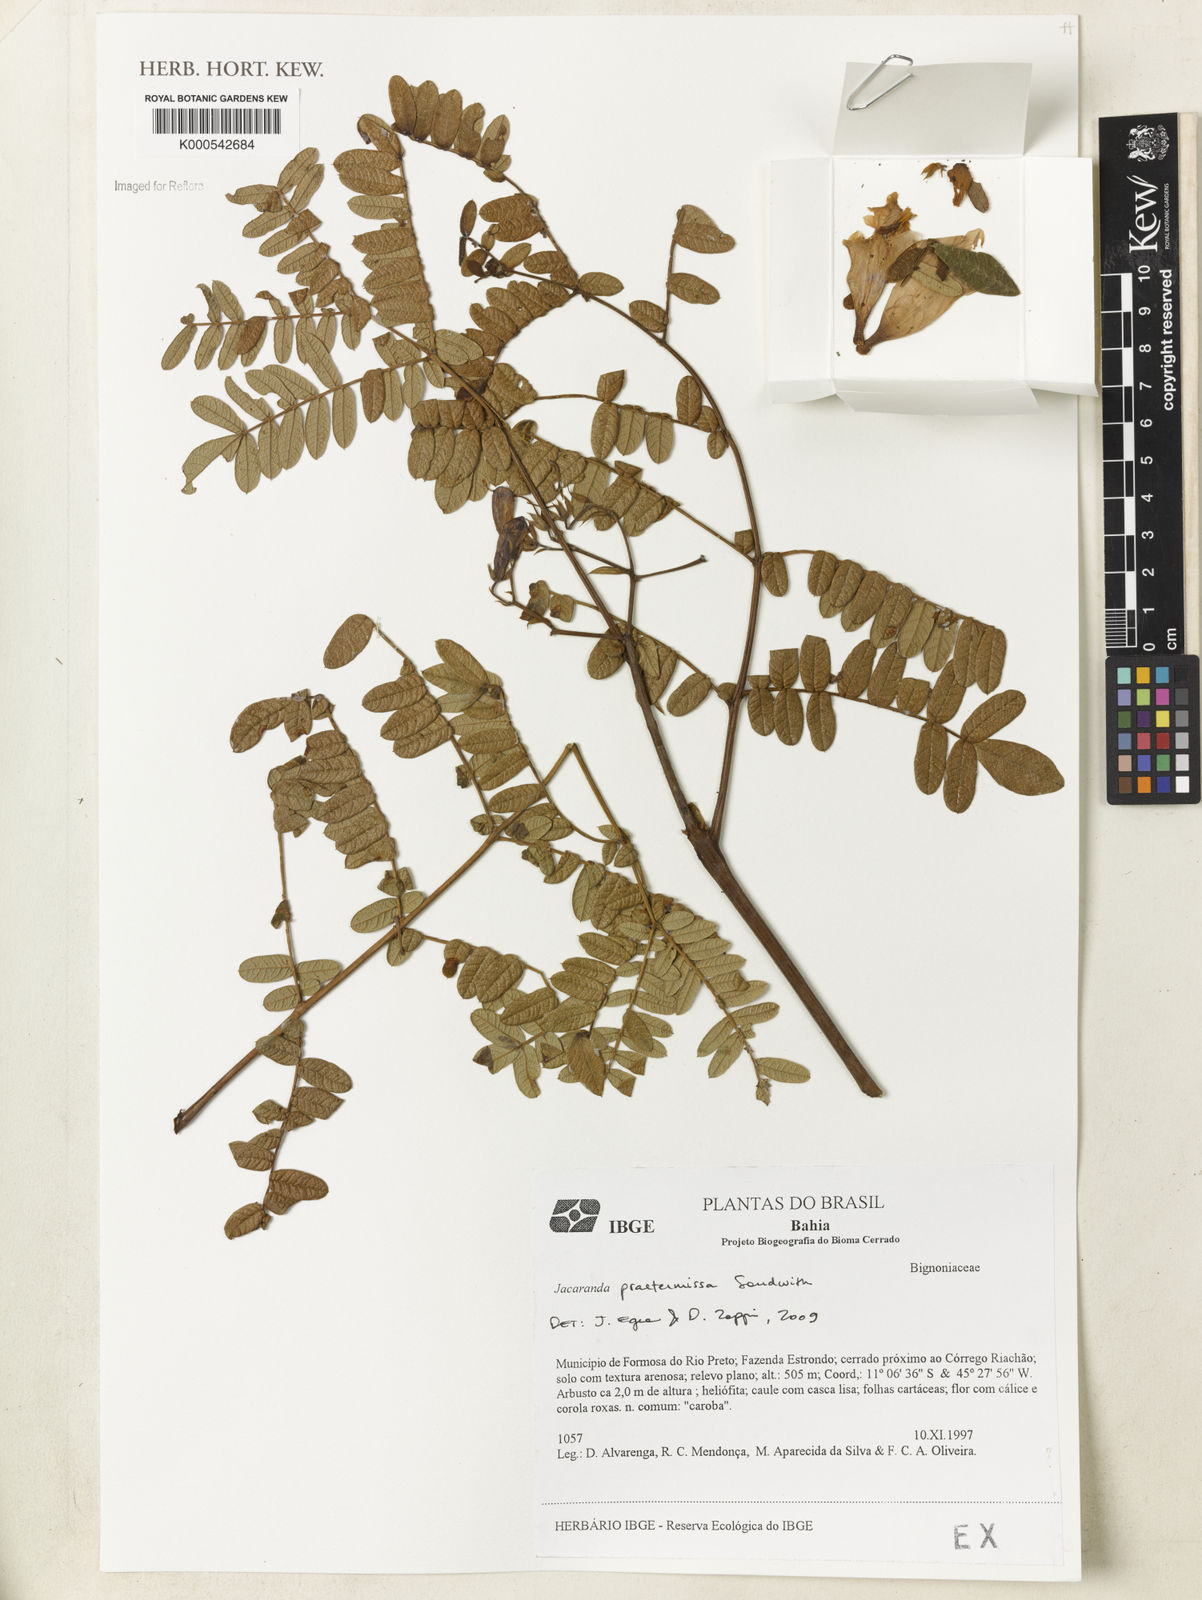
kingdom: Plantae
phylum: Tracheophyta
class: Magnoliopsida
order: Lamiales
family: Bignoniaceae
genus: Jacaranda
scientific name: Jacaranda praetermissa
